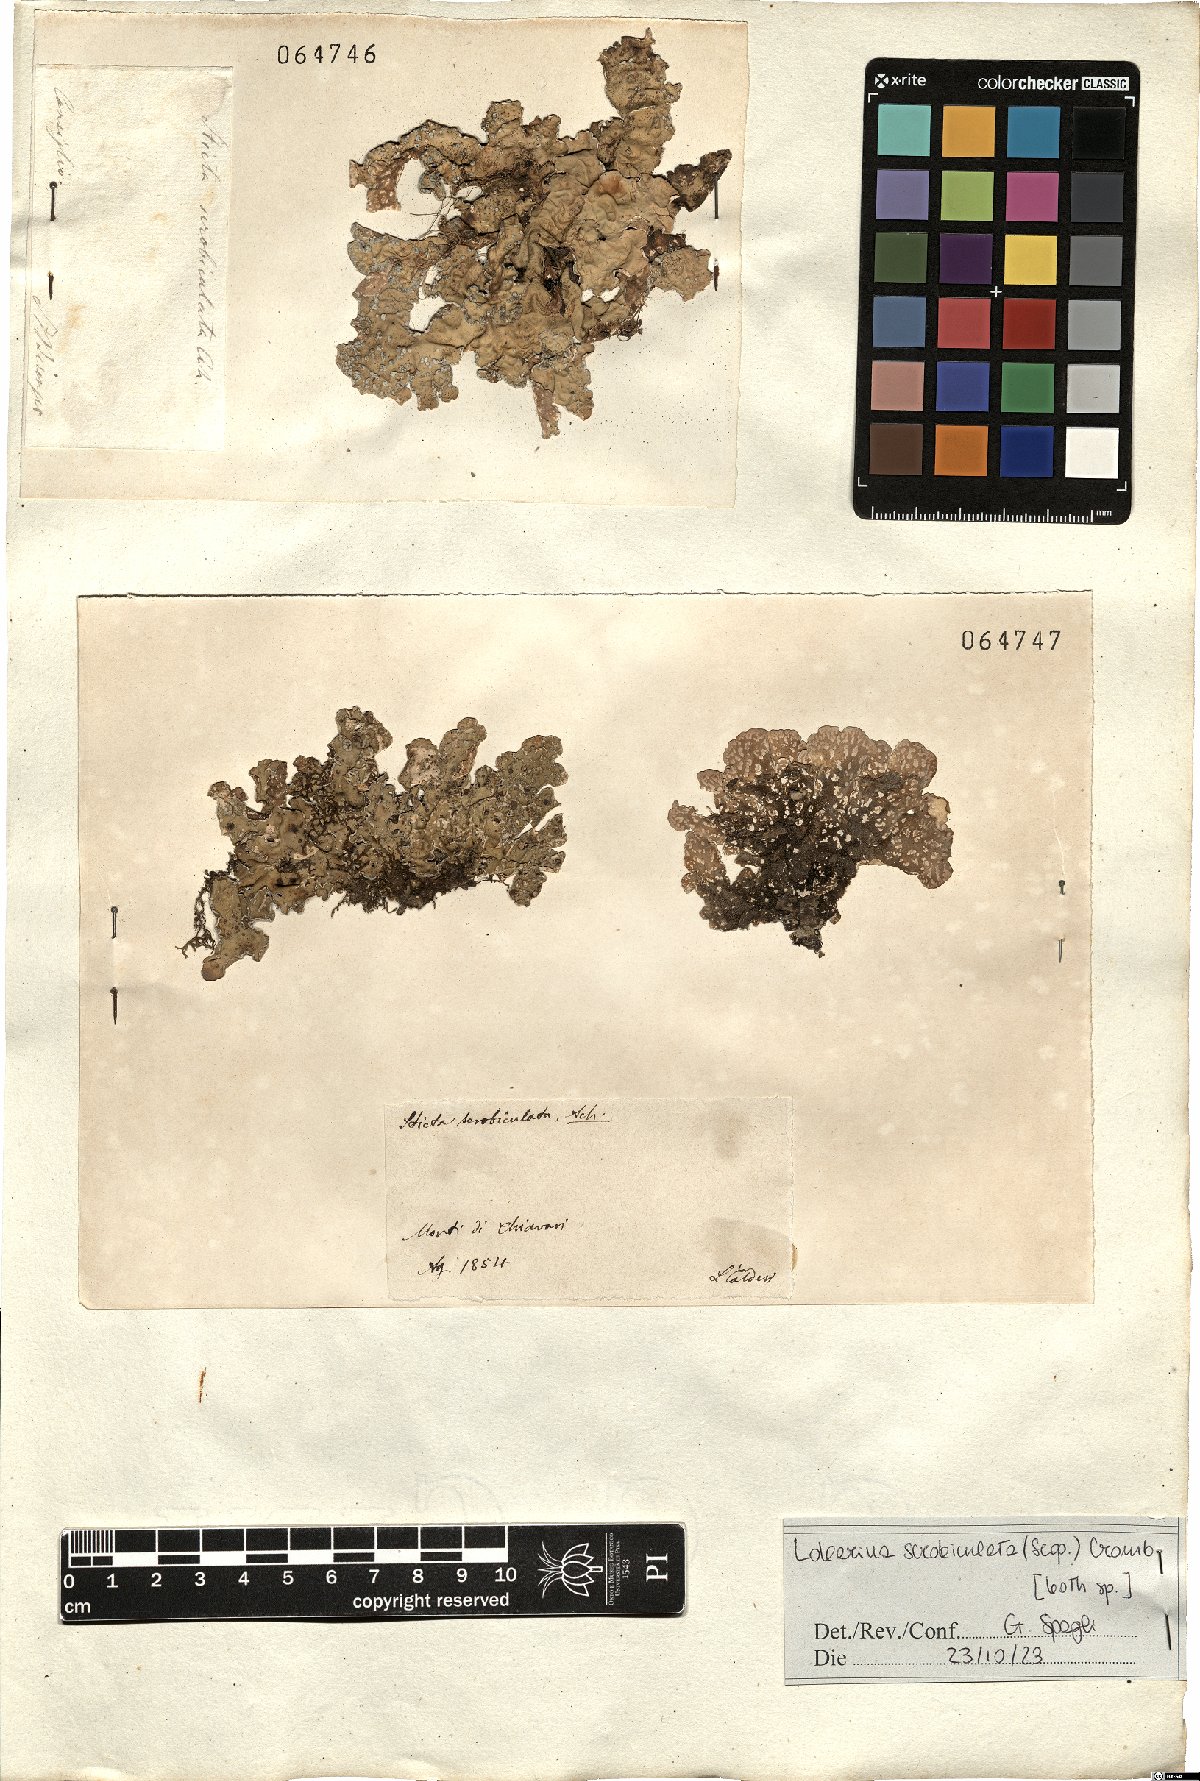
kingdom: Fungi
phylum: Ascomycota
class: Lecanoromycetes
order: Peltigerales
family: Lobariaceae
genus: Lobarina
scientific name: Lobarina scrobiculata
